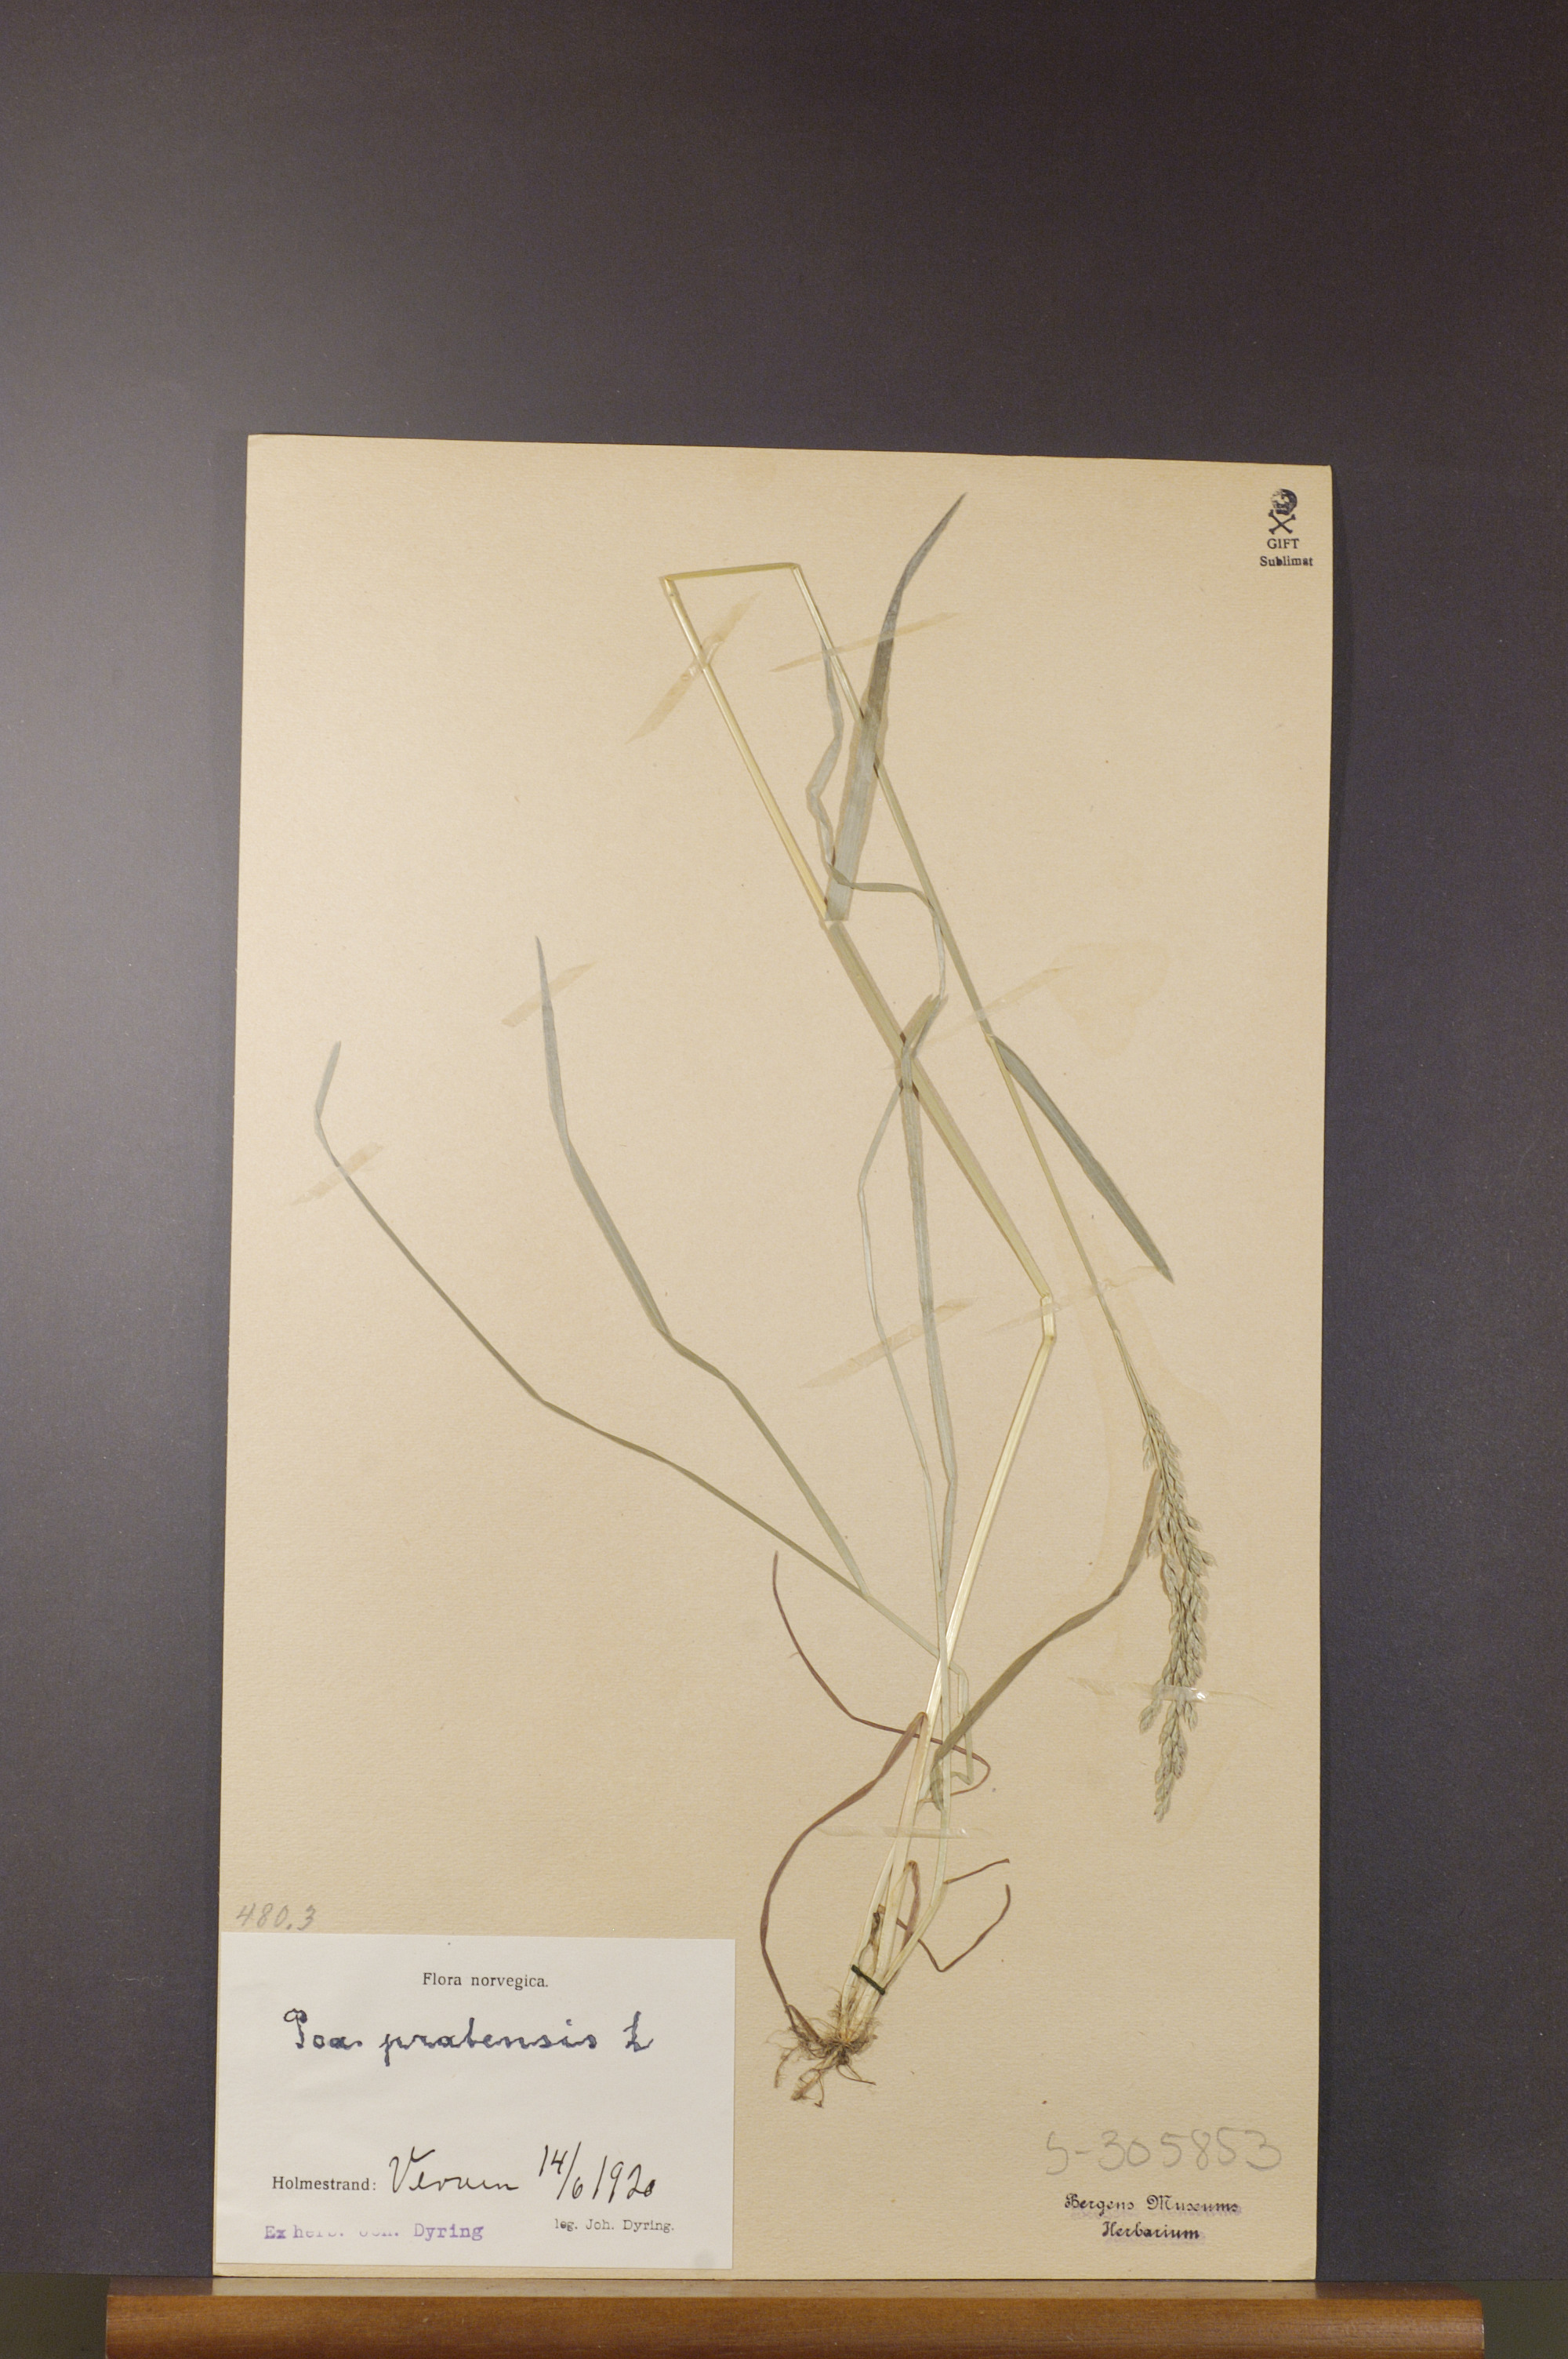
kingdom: Plantae
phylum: Tracheophyta
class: Liliopsida
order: Poales
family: Poaceae
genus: Poa
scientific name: Poa pratensis
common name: Kentucky bluegrass
